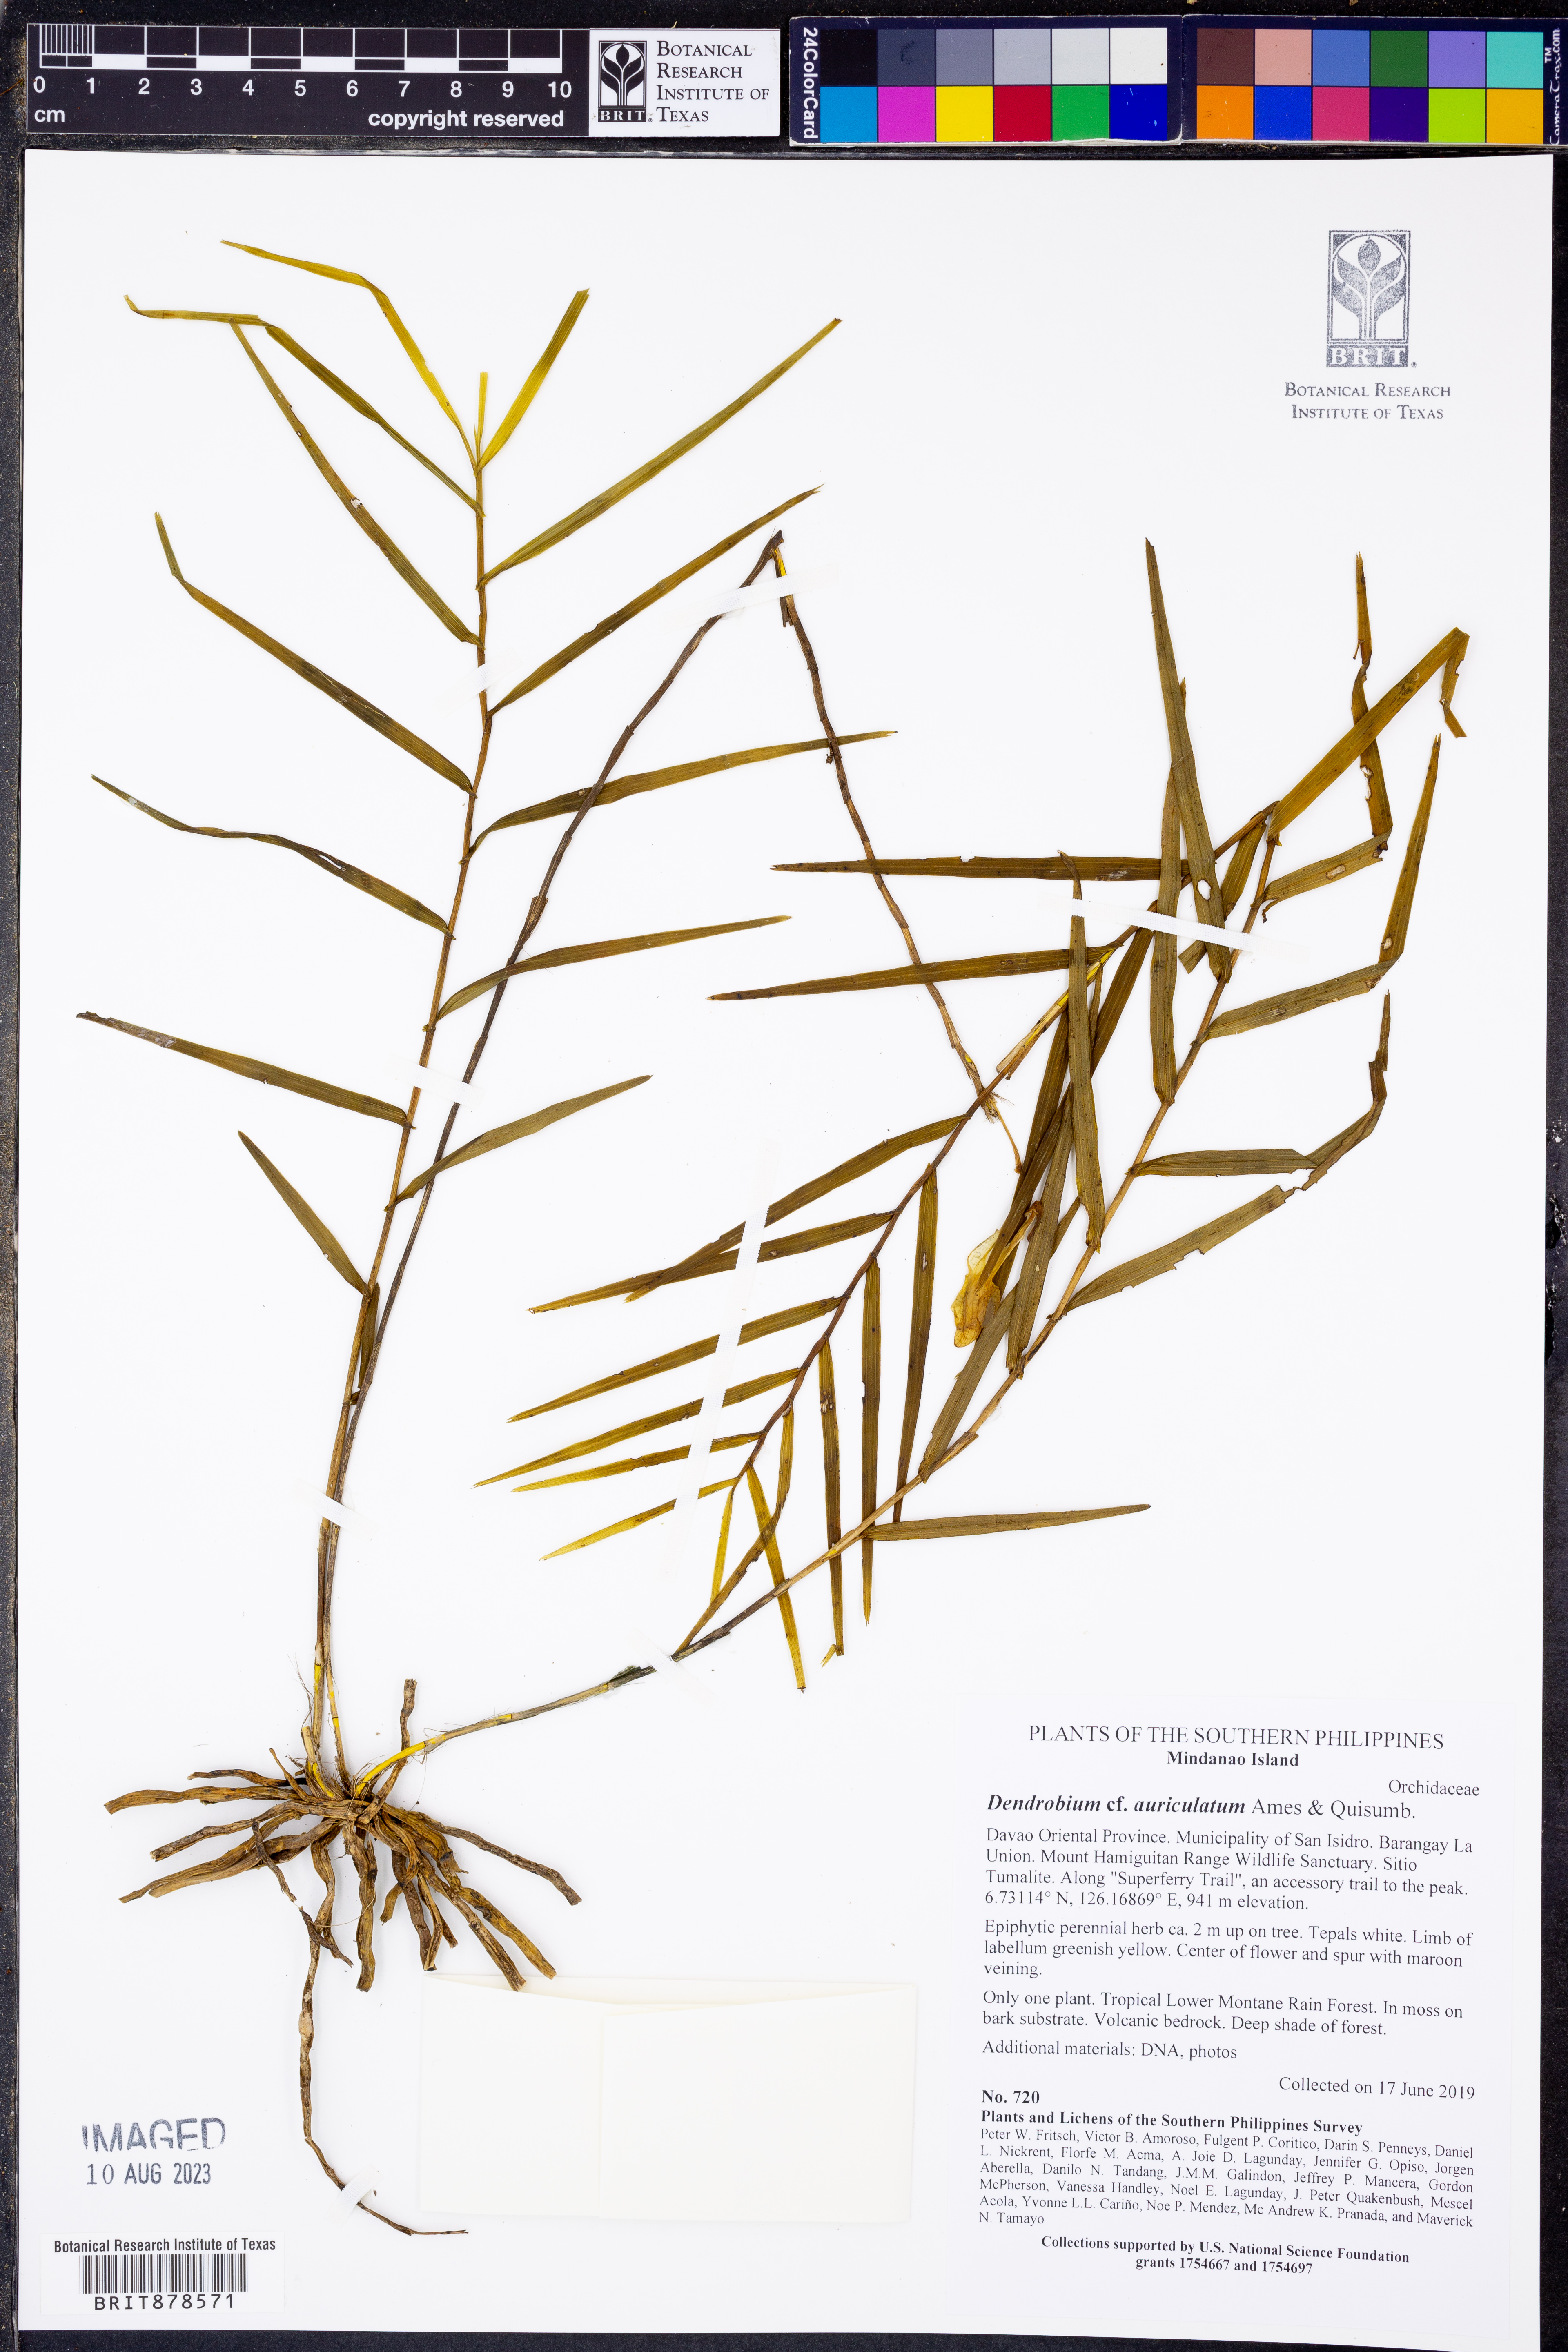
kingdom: Plantae
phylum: Tracheophyta
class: Liliopsida
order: Asparagales
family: Orchidaceae
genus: Dendrobium
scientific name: Dendrobium auriculatum
